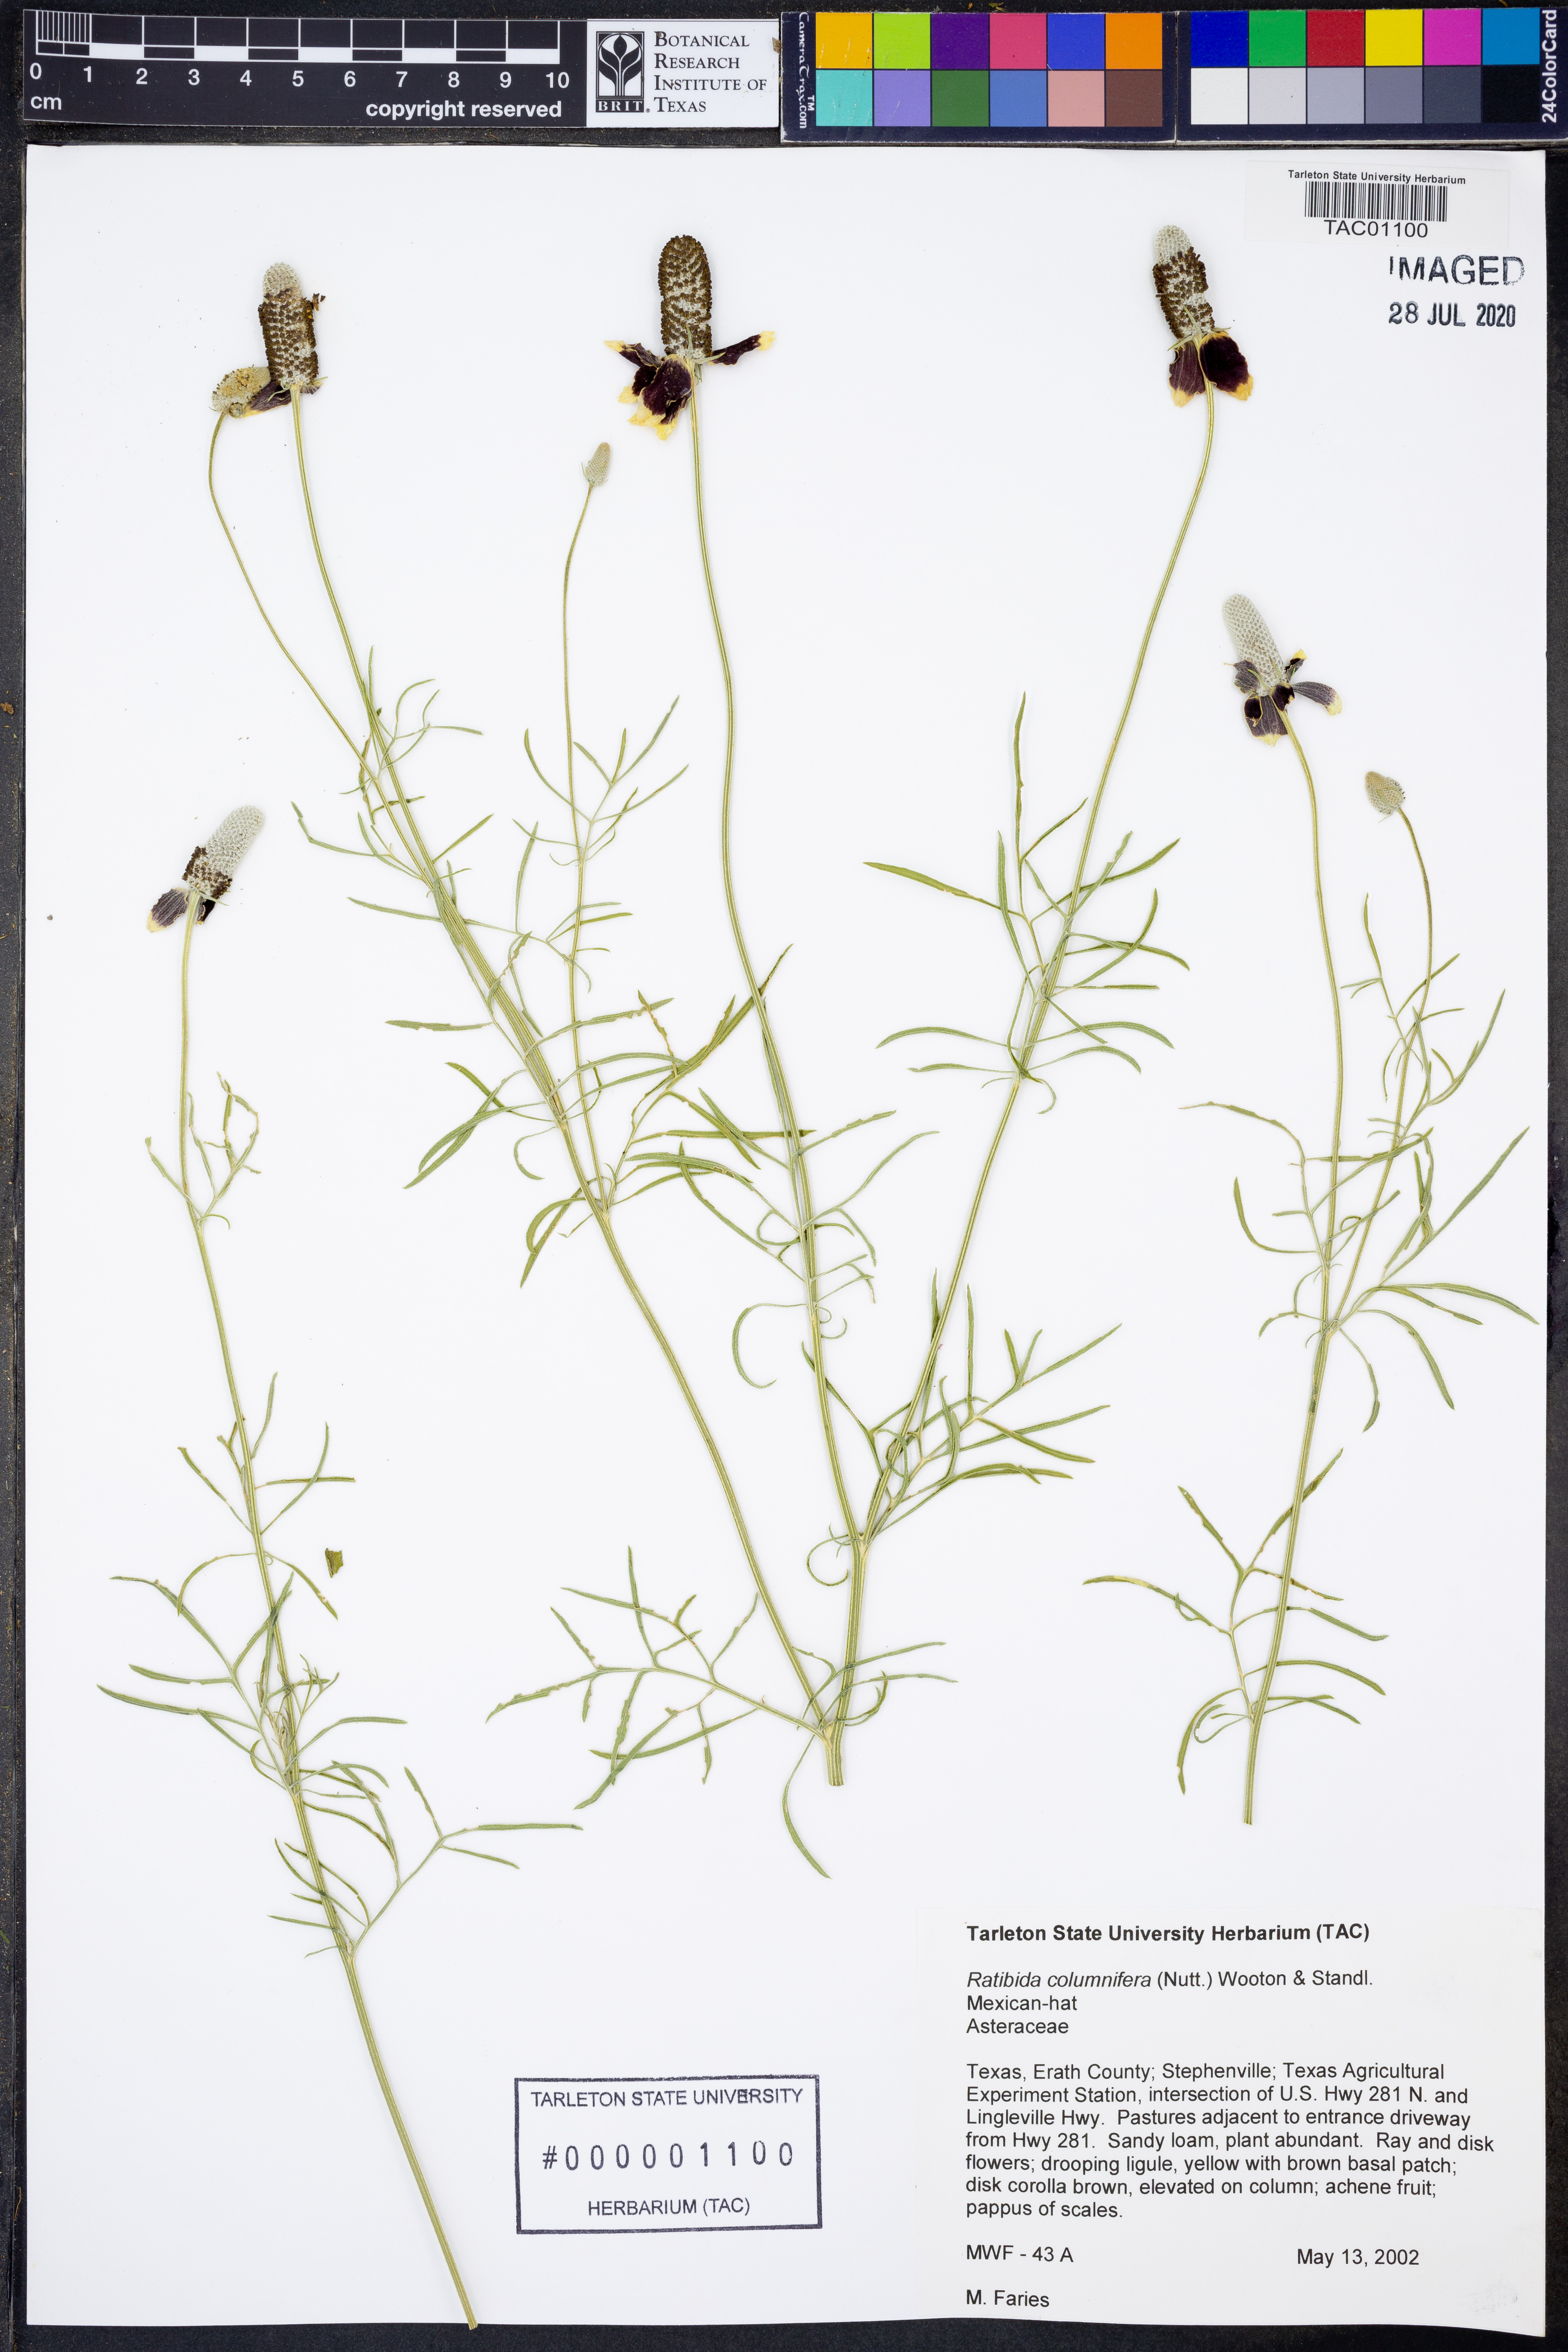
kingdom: Plantae
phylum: Tracheophyta
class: Magnoliopsida
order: Asterales
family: Asteraceae
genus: Ratibida
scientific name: Ratibida columnifera
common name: Prairie coneflower
